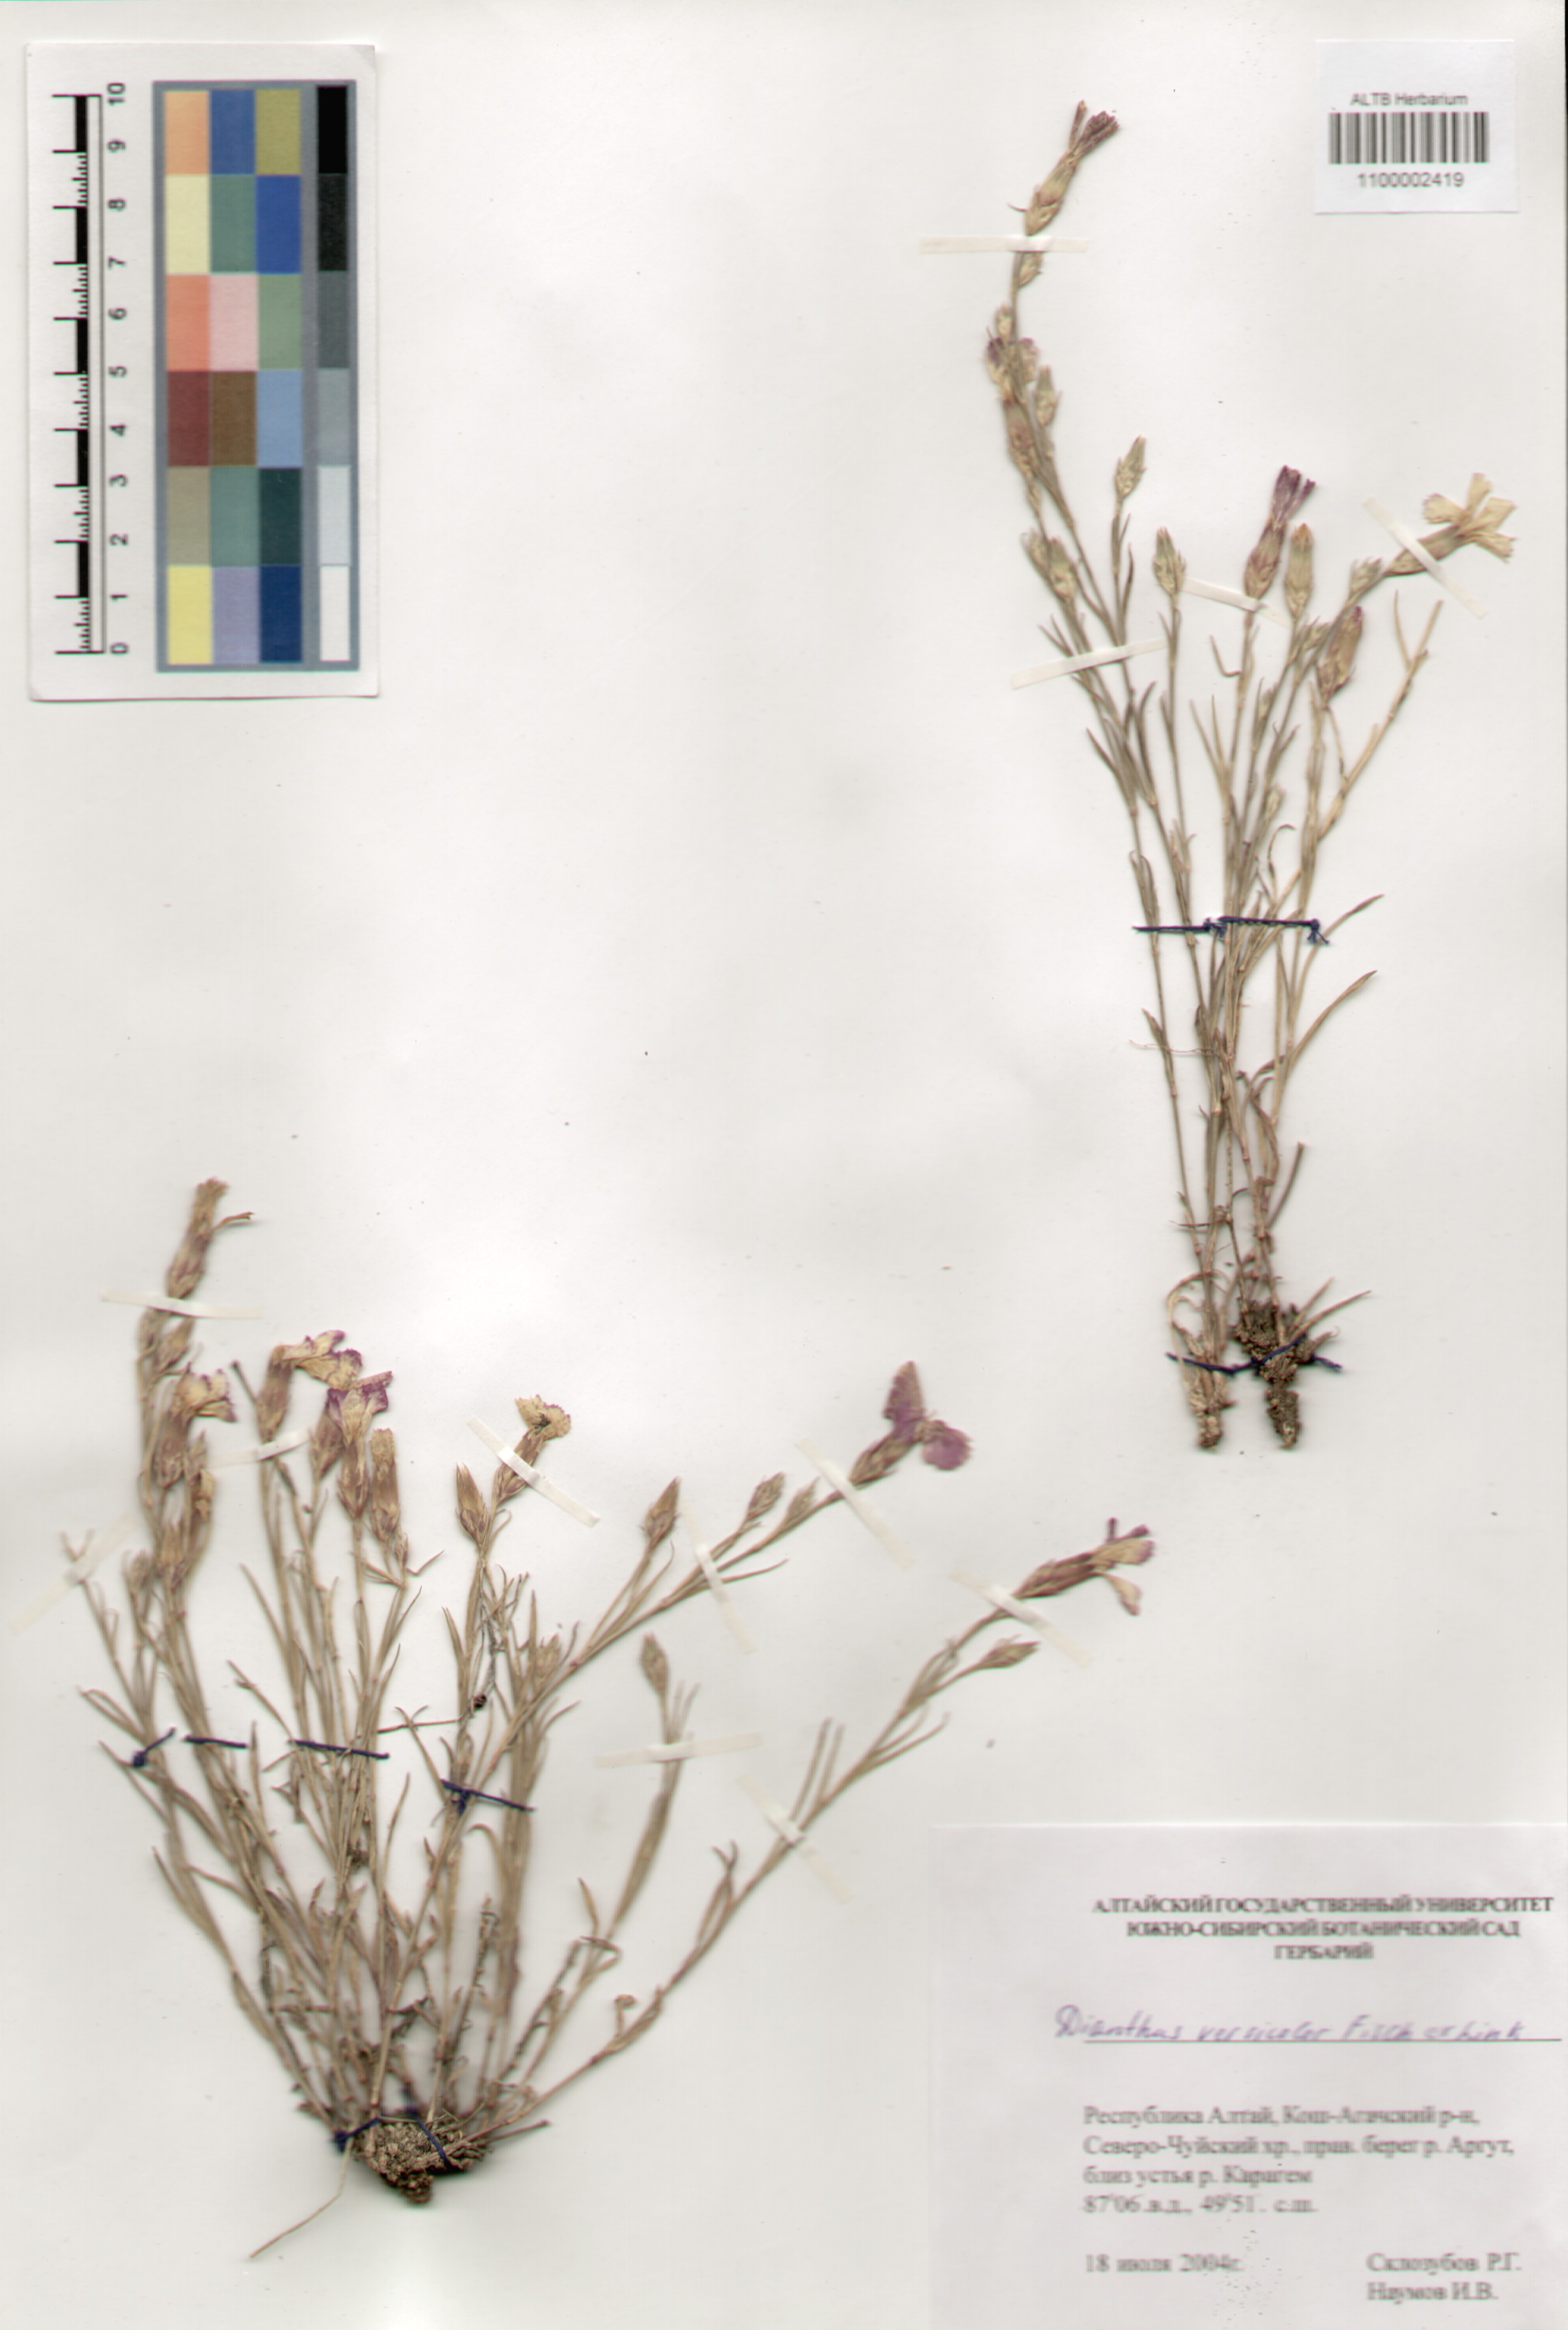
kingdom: Plantae
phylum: Tracheophyta
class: Magnoliopsida
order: Caryophyllales
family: Caryophyllaceae
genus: Dianthus
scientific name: Dianthus chinensis
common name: Rainbow pink
